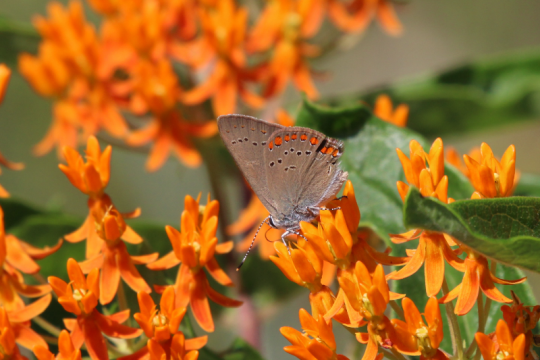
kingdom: Animalia
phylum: Arthropoda
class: Insecta
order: Lepidoptera
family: Lycaenidae
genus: Harkenclenus
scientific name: Harkenclenus titus
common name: Coral Hairstreak
